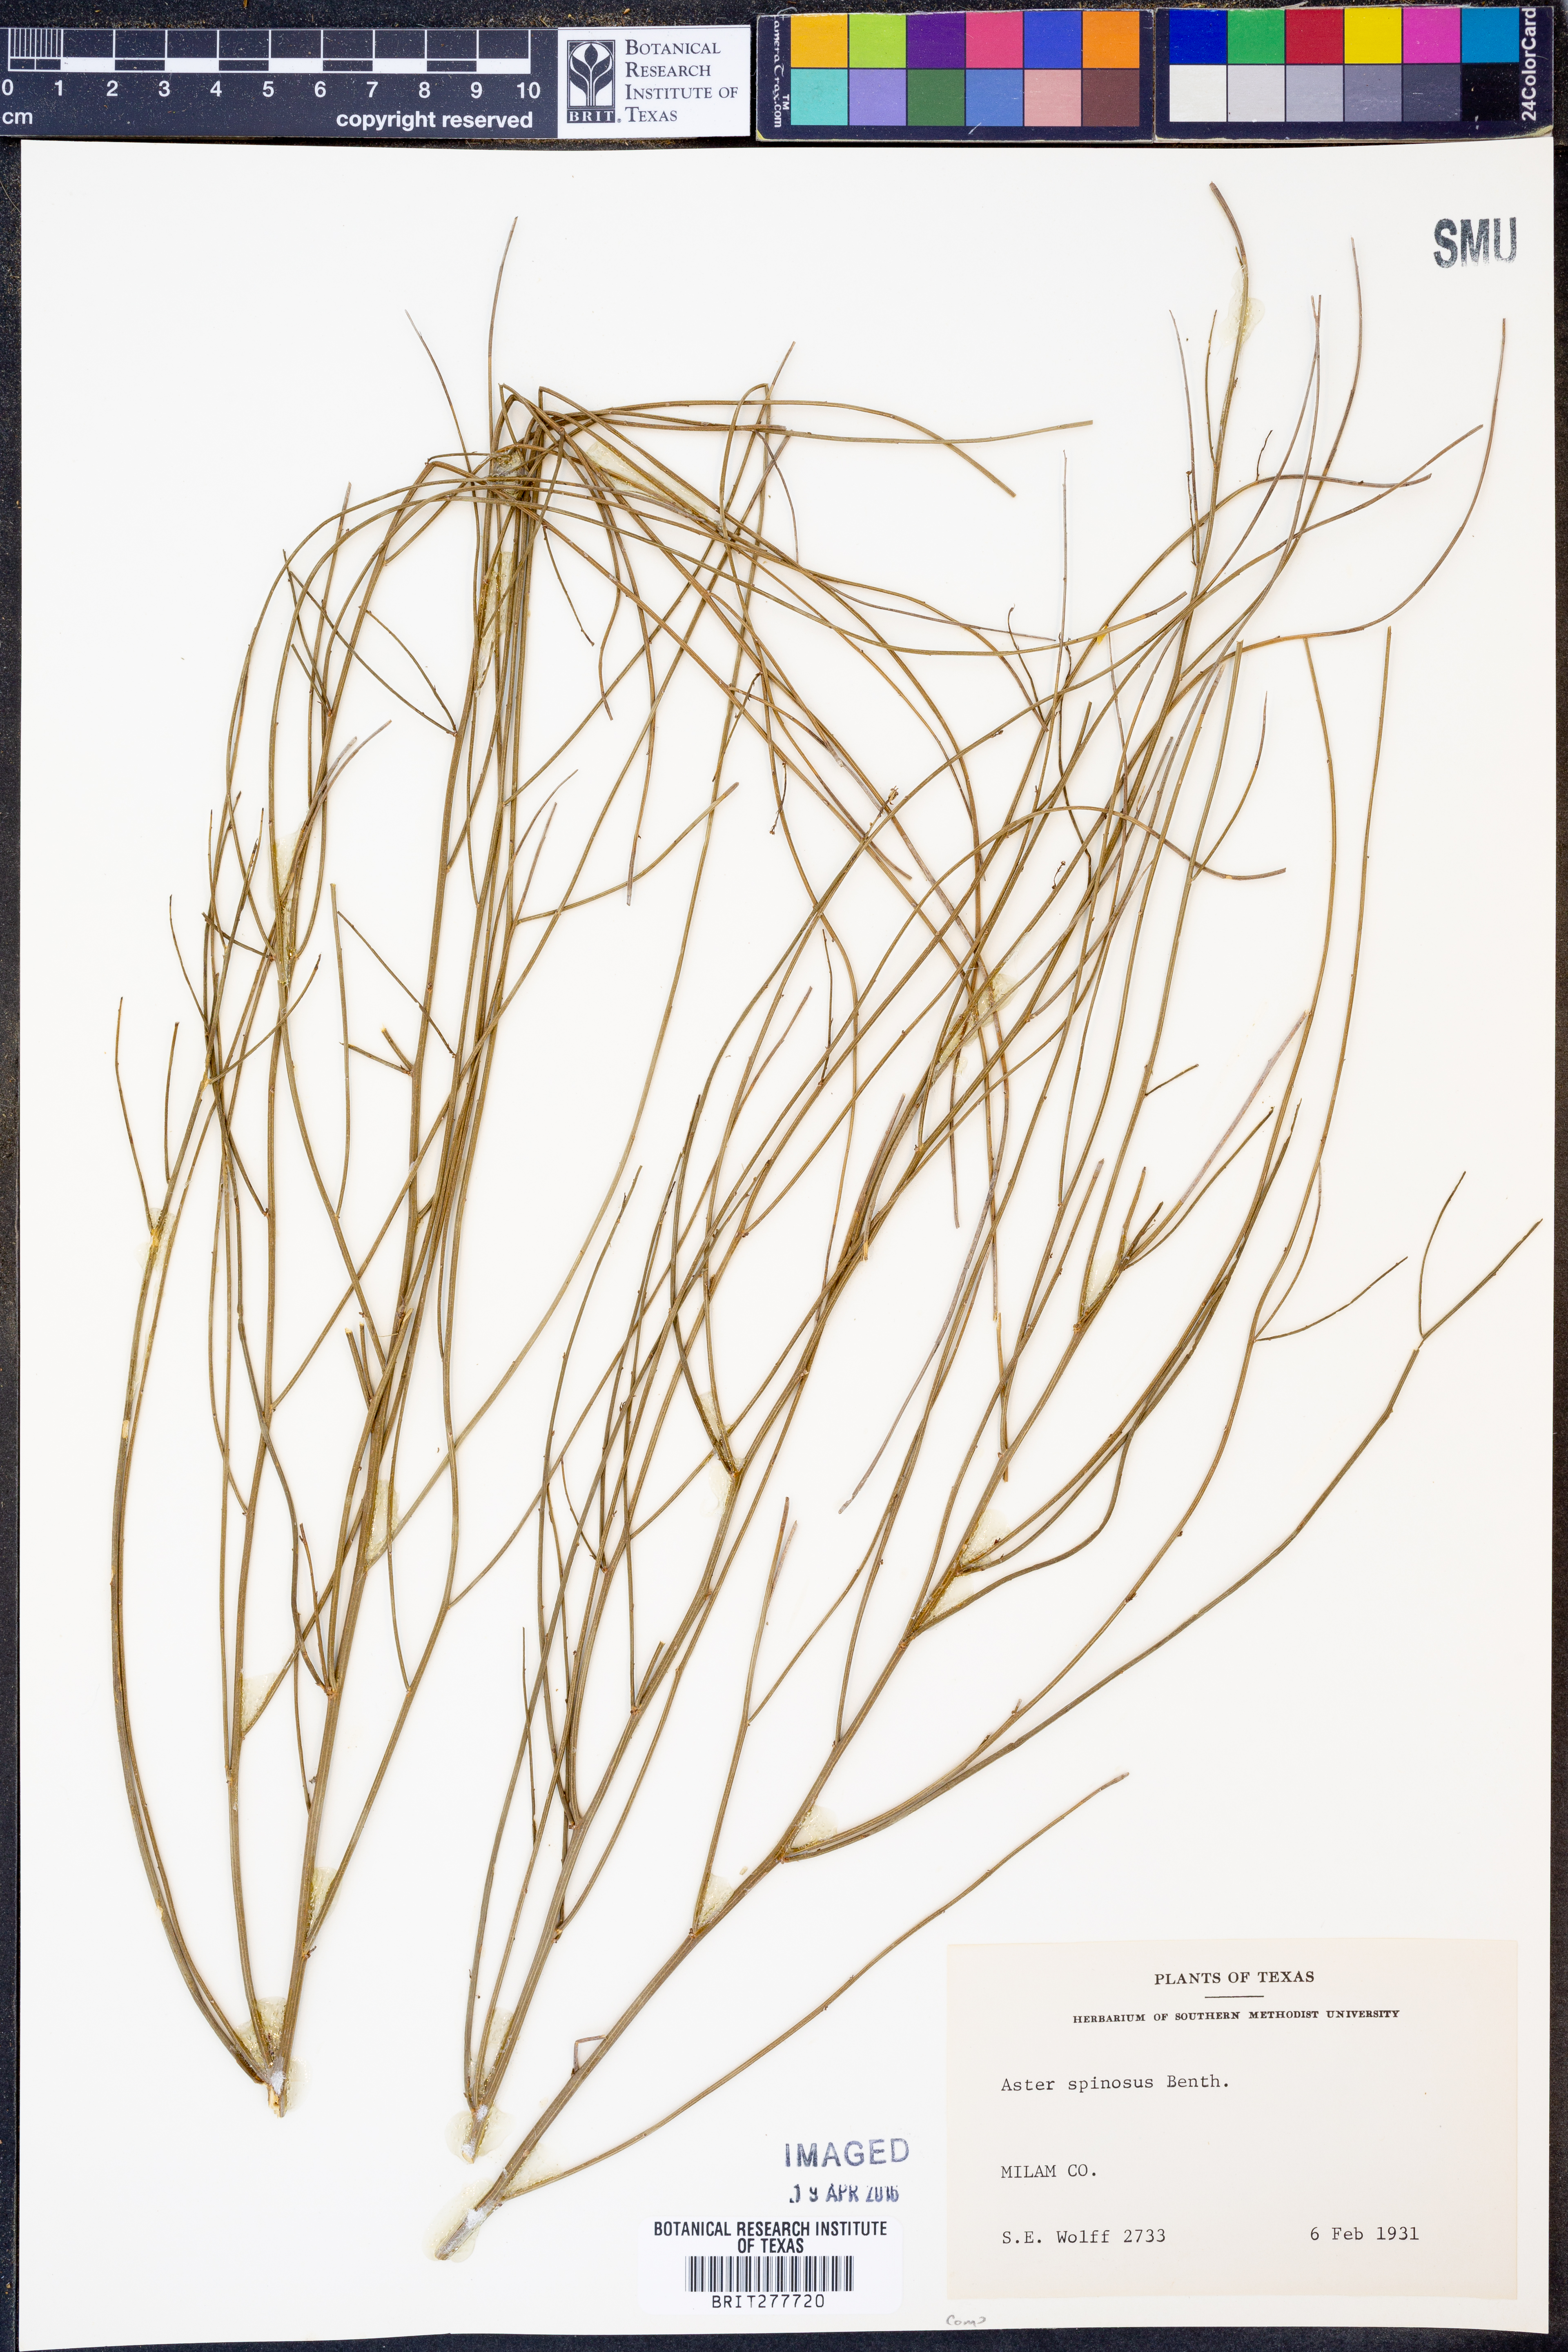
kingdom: Plantae
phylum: Tracheophyta
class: Magnoliopsida
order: Asterales
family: Asteraceae
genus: Chloracantha
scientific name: Chloracantha spinosa
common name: Mexican devilweed
